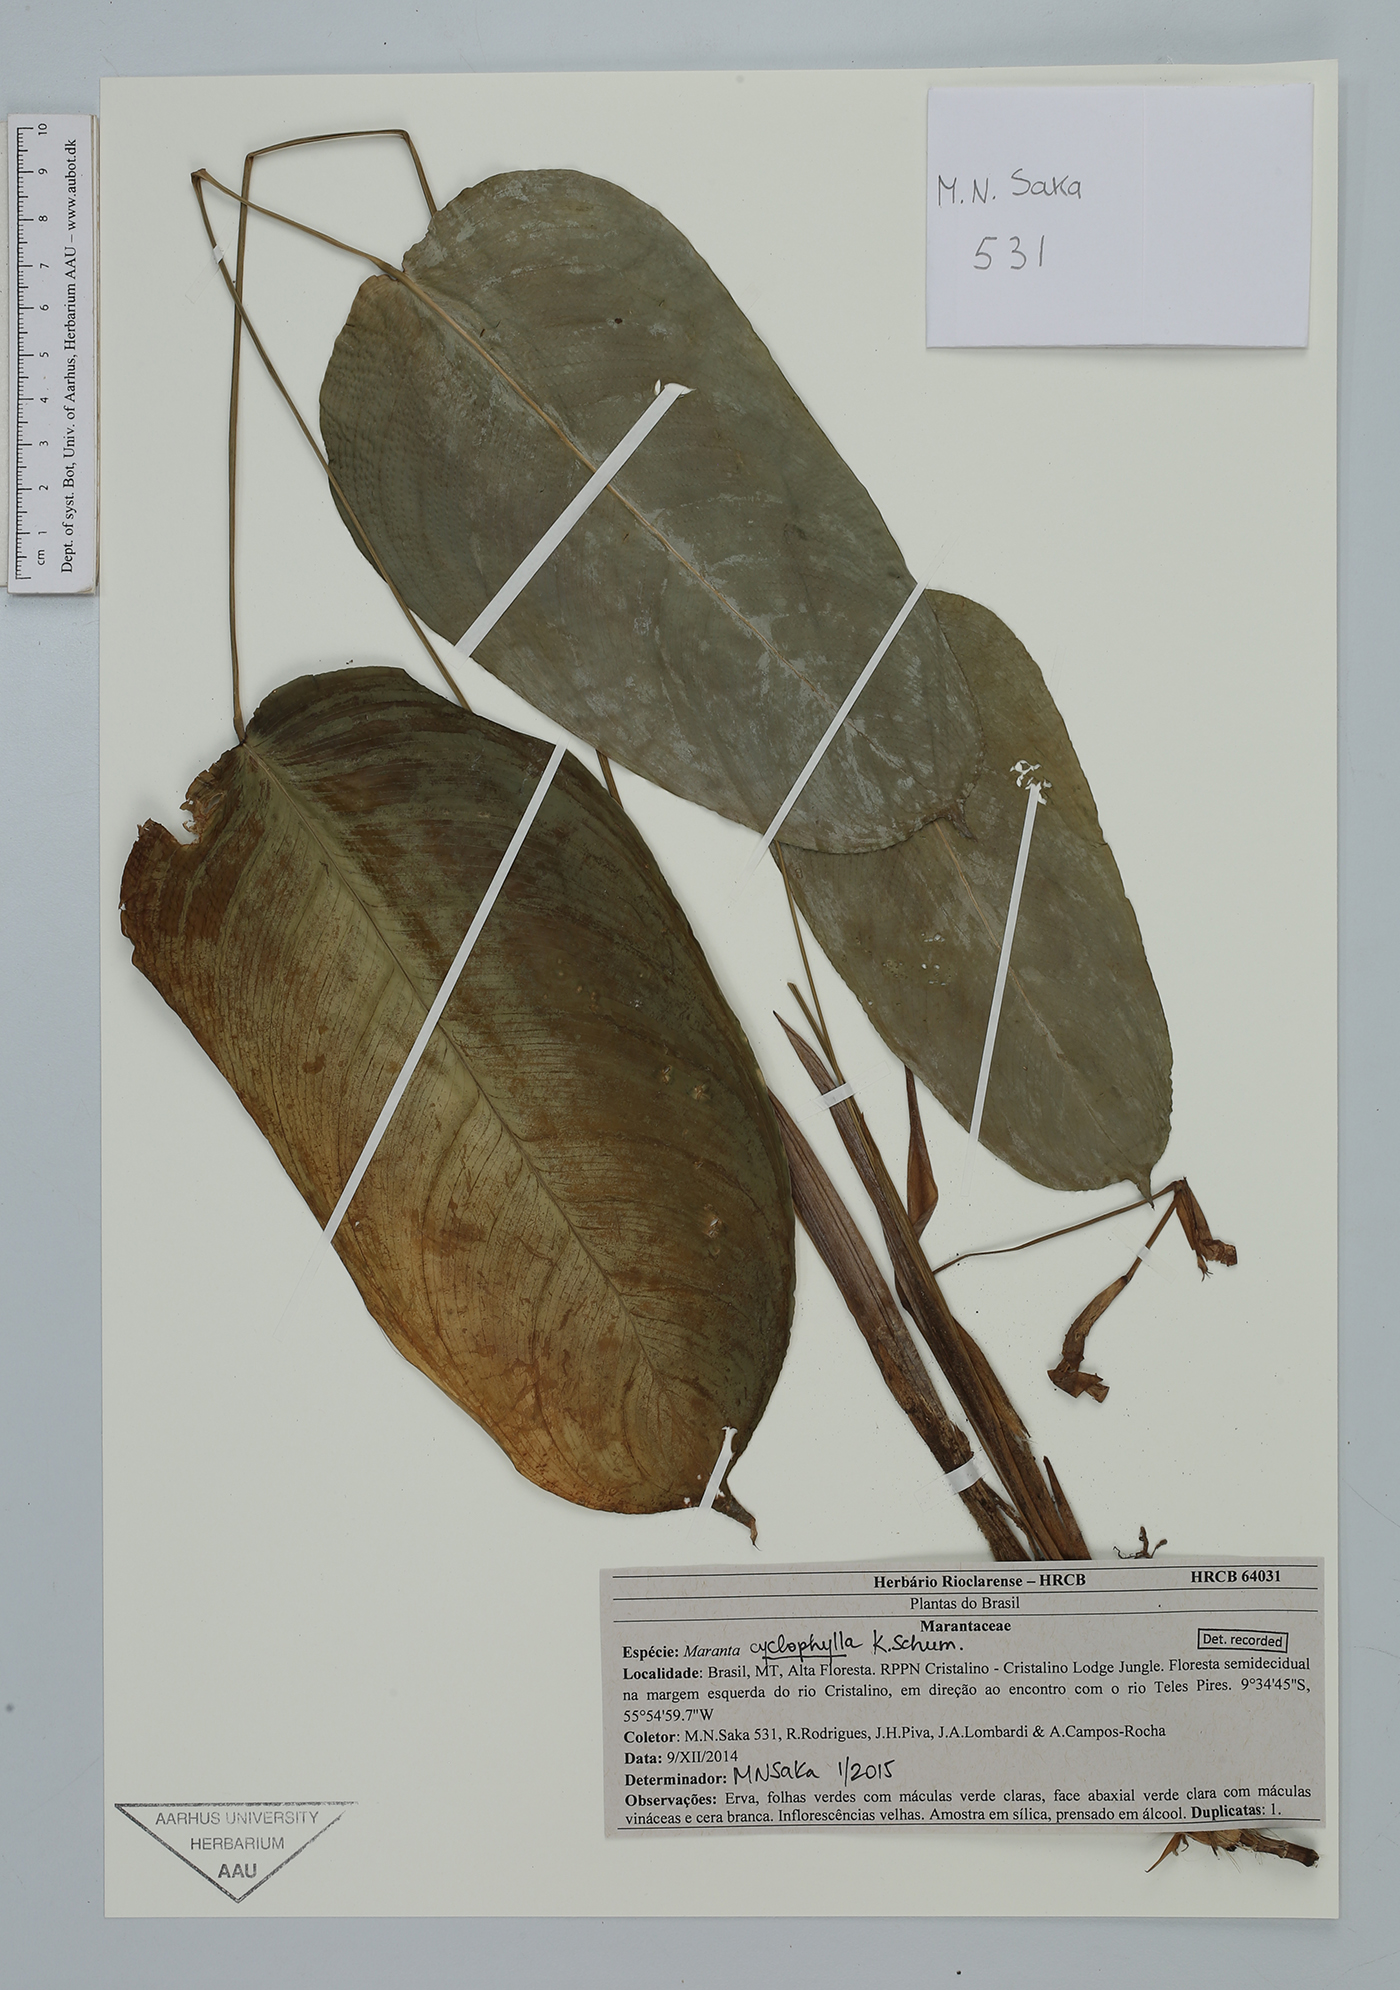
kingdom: Plantae
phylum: Tracheophyta
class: Liliopsida
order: Zingiberales
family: Marantaceae
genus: Maranta
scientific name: Maranta cyclophylla
